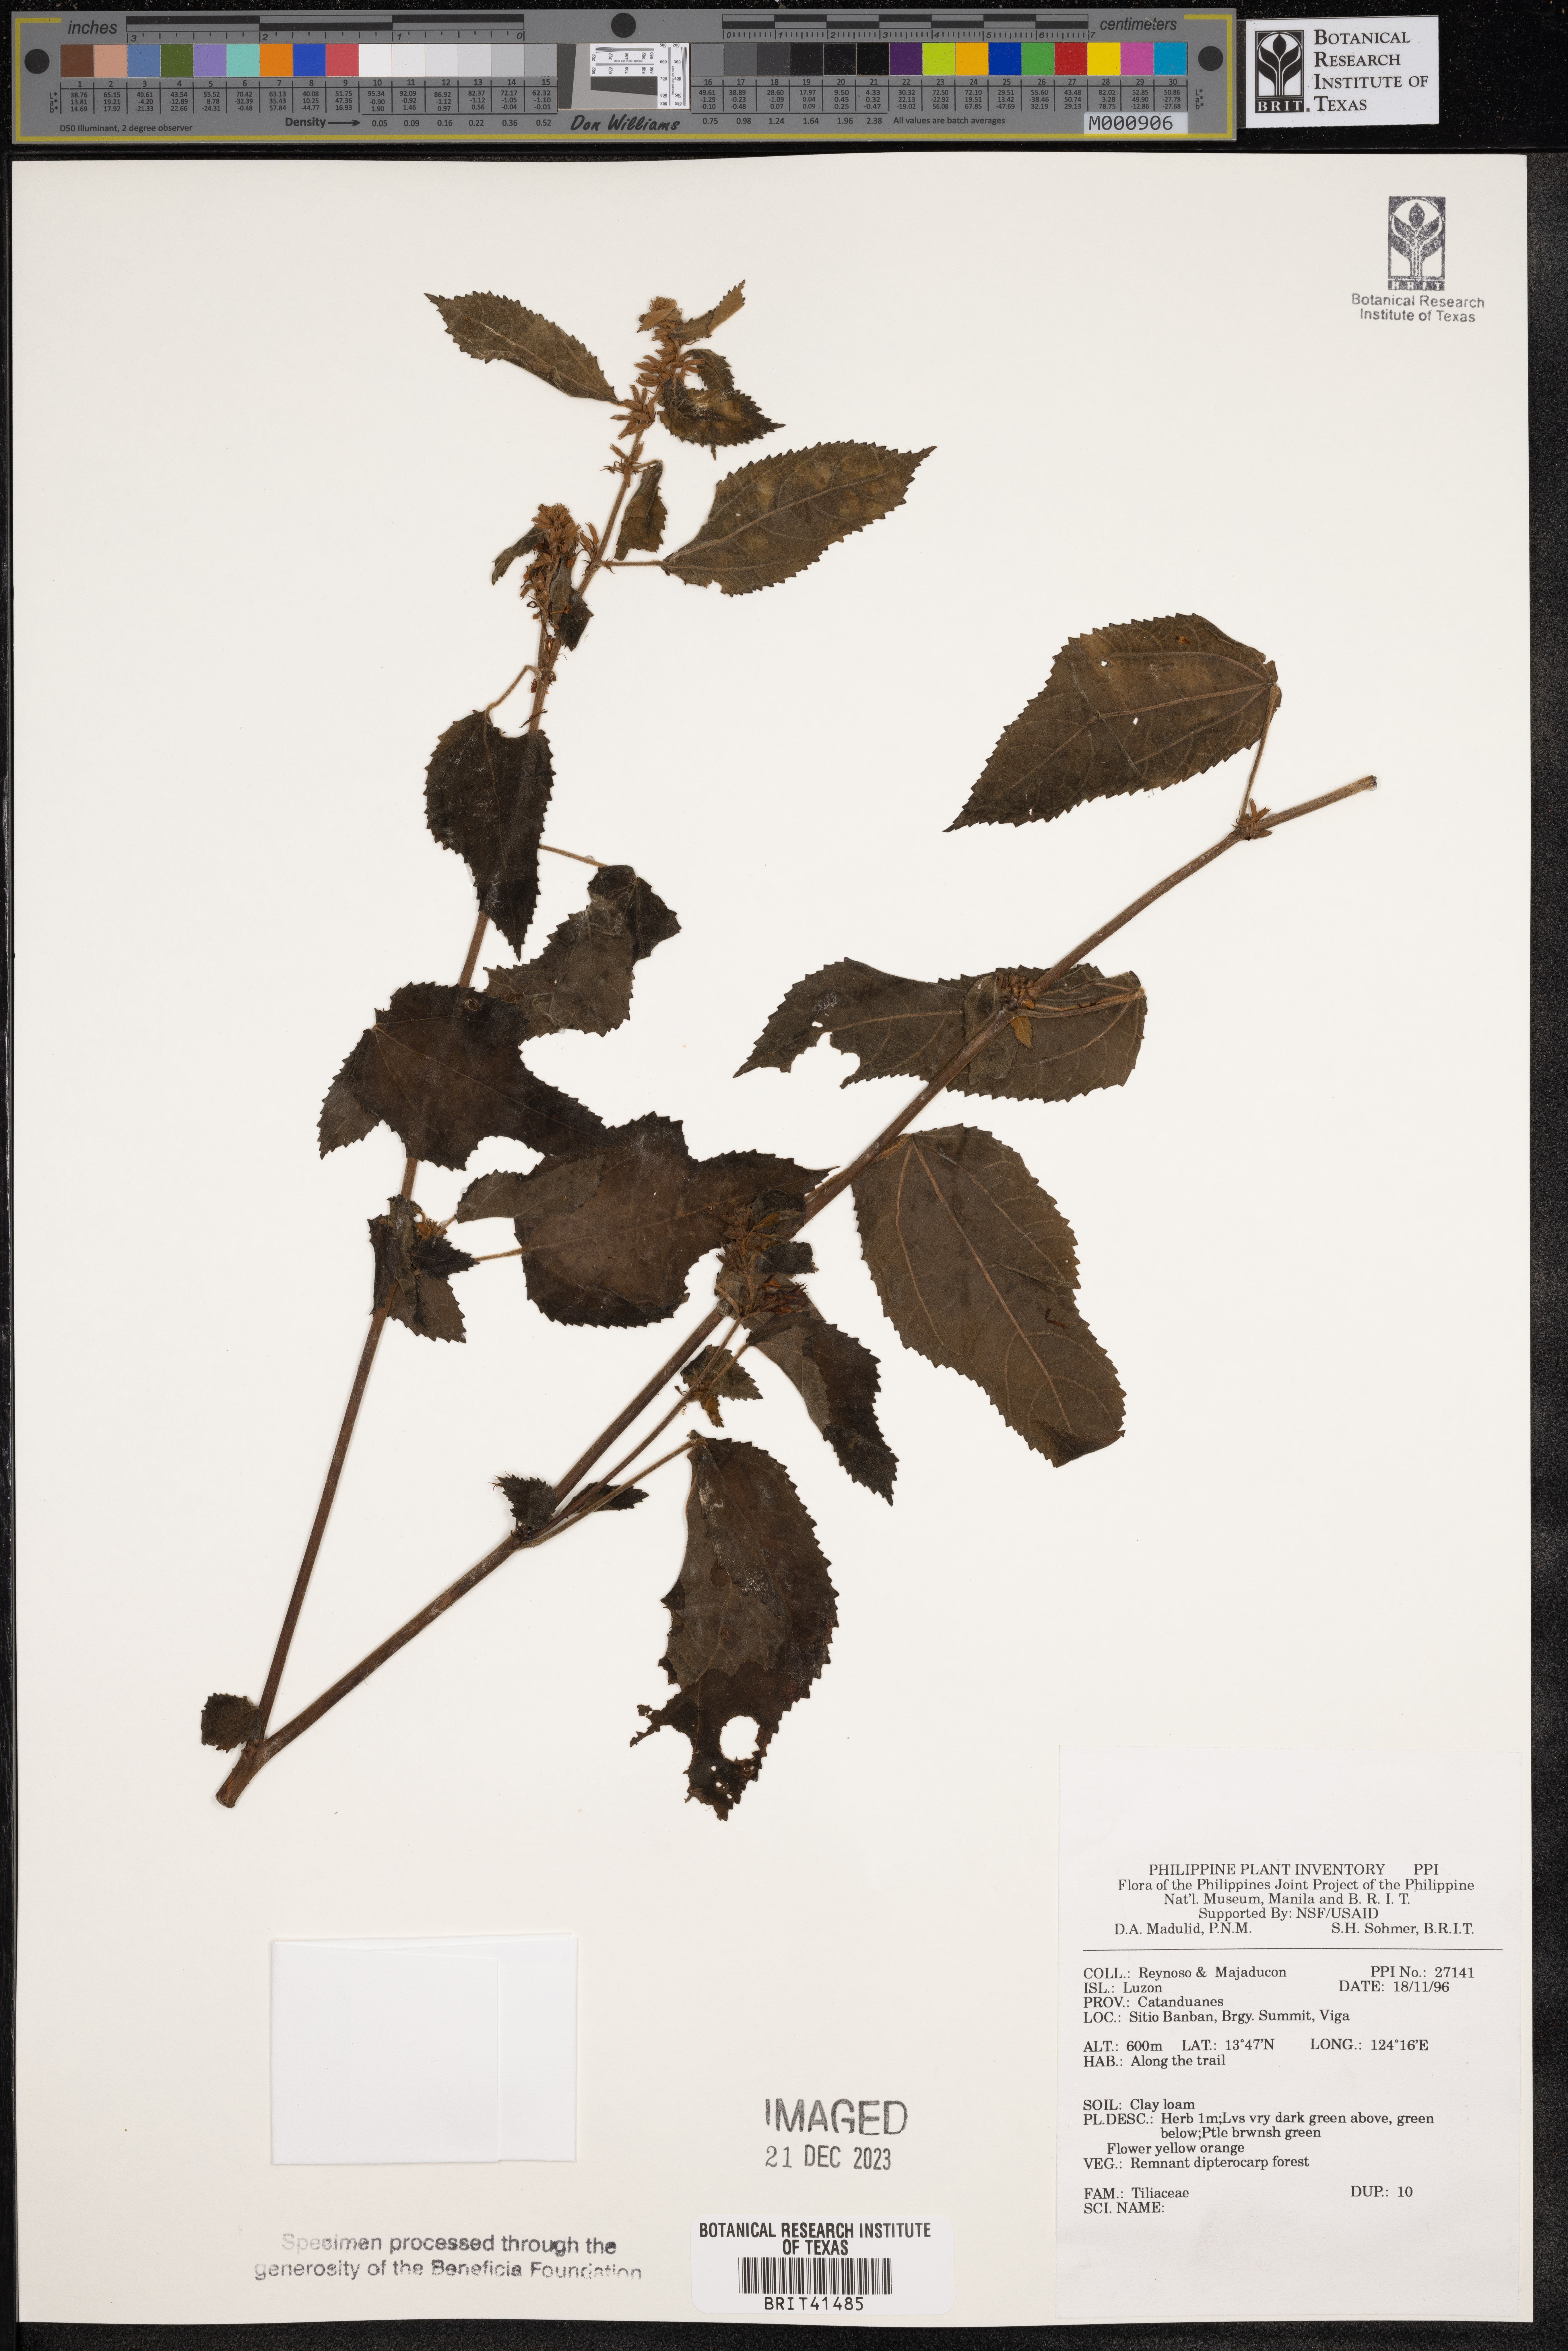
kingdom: Plantae
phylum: Tracheophyta
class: Magnoliopsida
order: Malvales
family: Tiliaceae
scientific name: Tiliaceae
